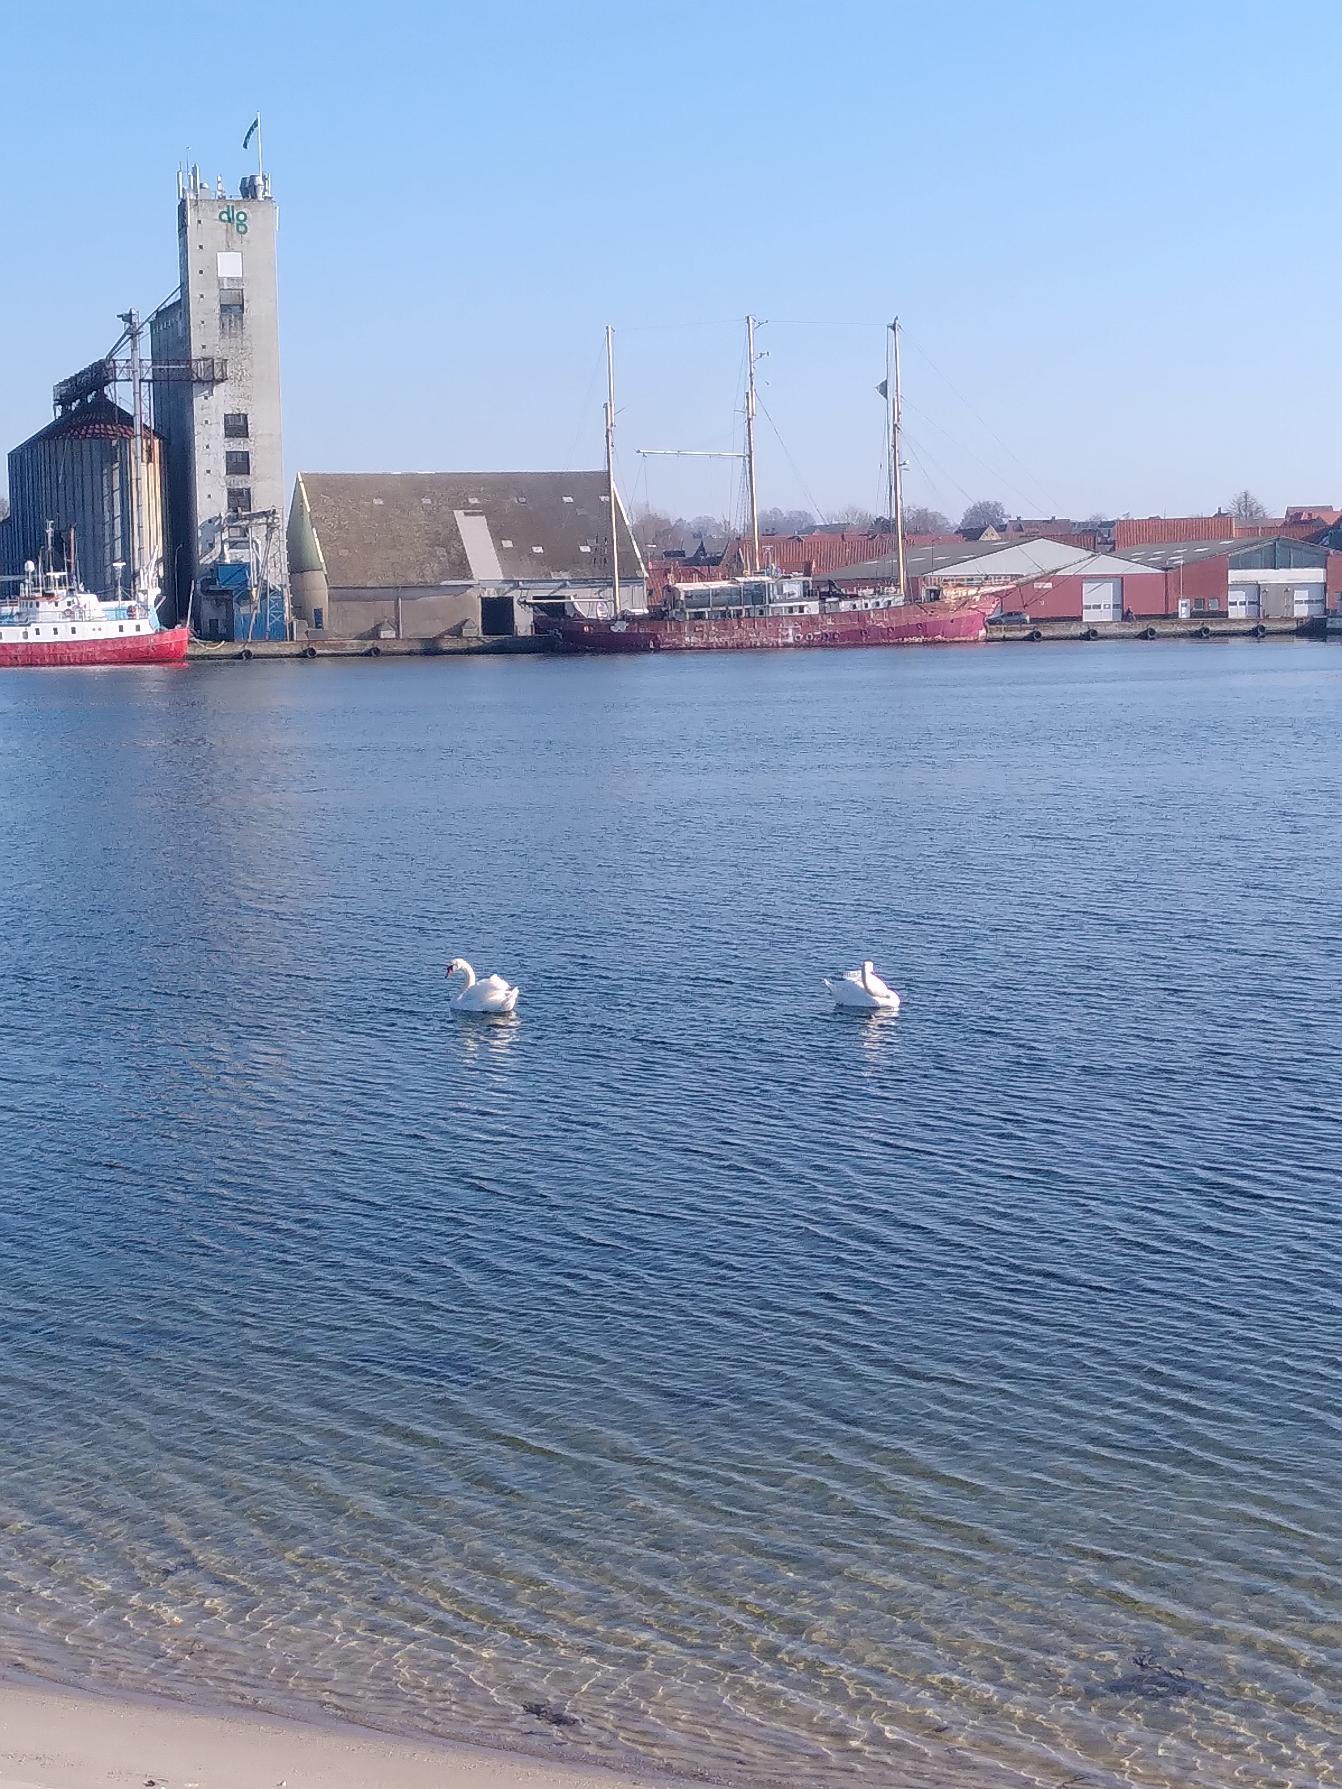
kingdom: Animalia
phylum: Chordata
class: Aves
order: Anseriformes
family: Anatidae
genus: Cygnus
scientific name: Cygnus olor
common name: Knopsvane
